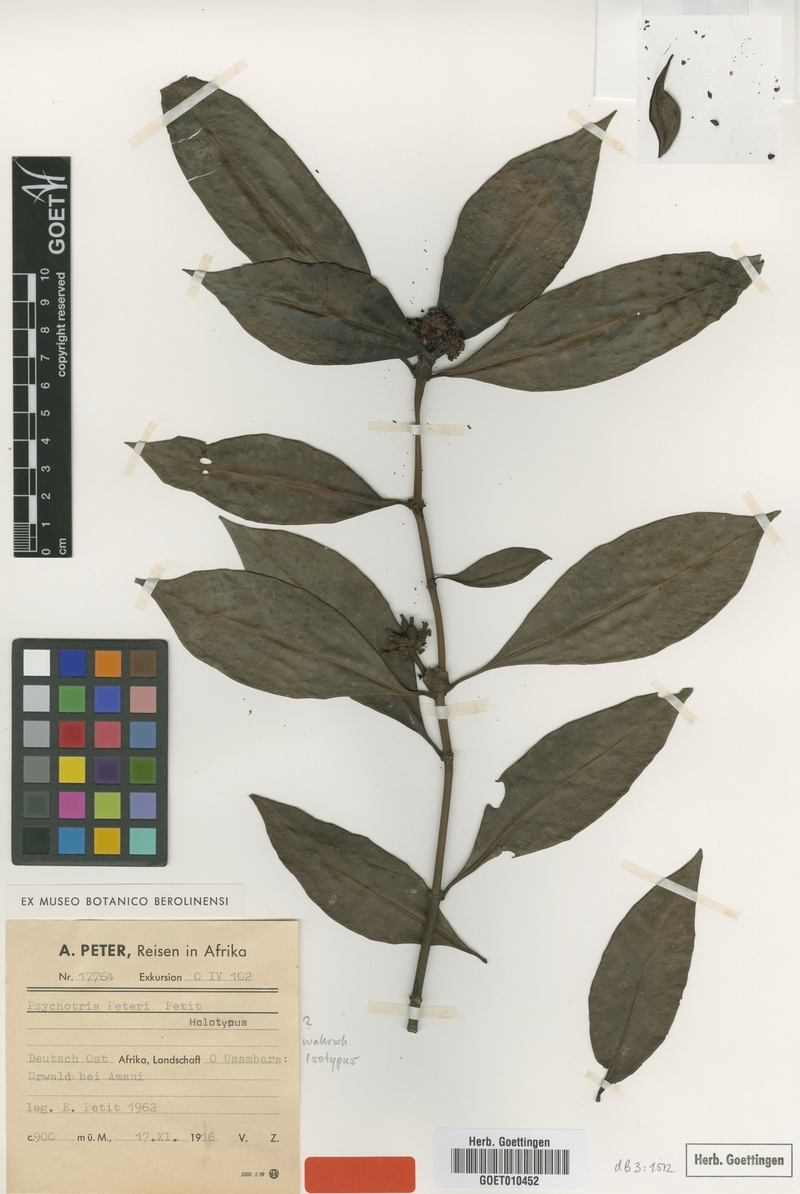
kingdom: Plantae
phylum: Tracheophyta
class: Magnoliopsida
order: Gentianales
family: Rubiaceae
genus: Psychotria
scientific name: Psychotria peteri
